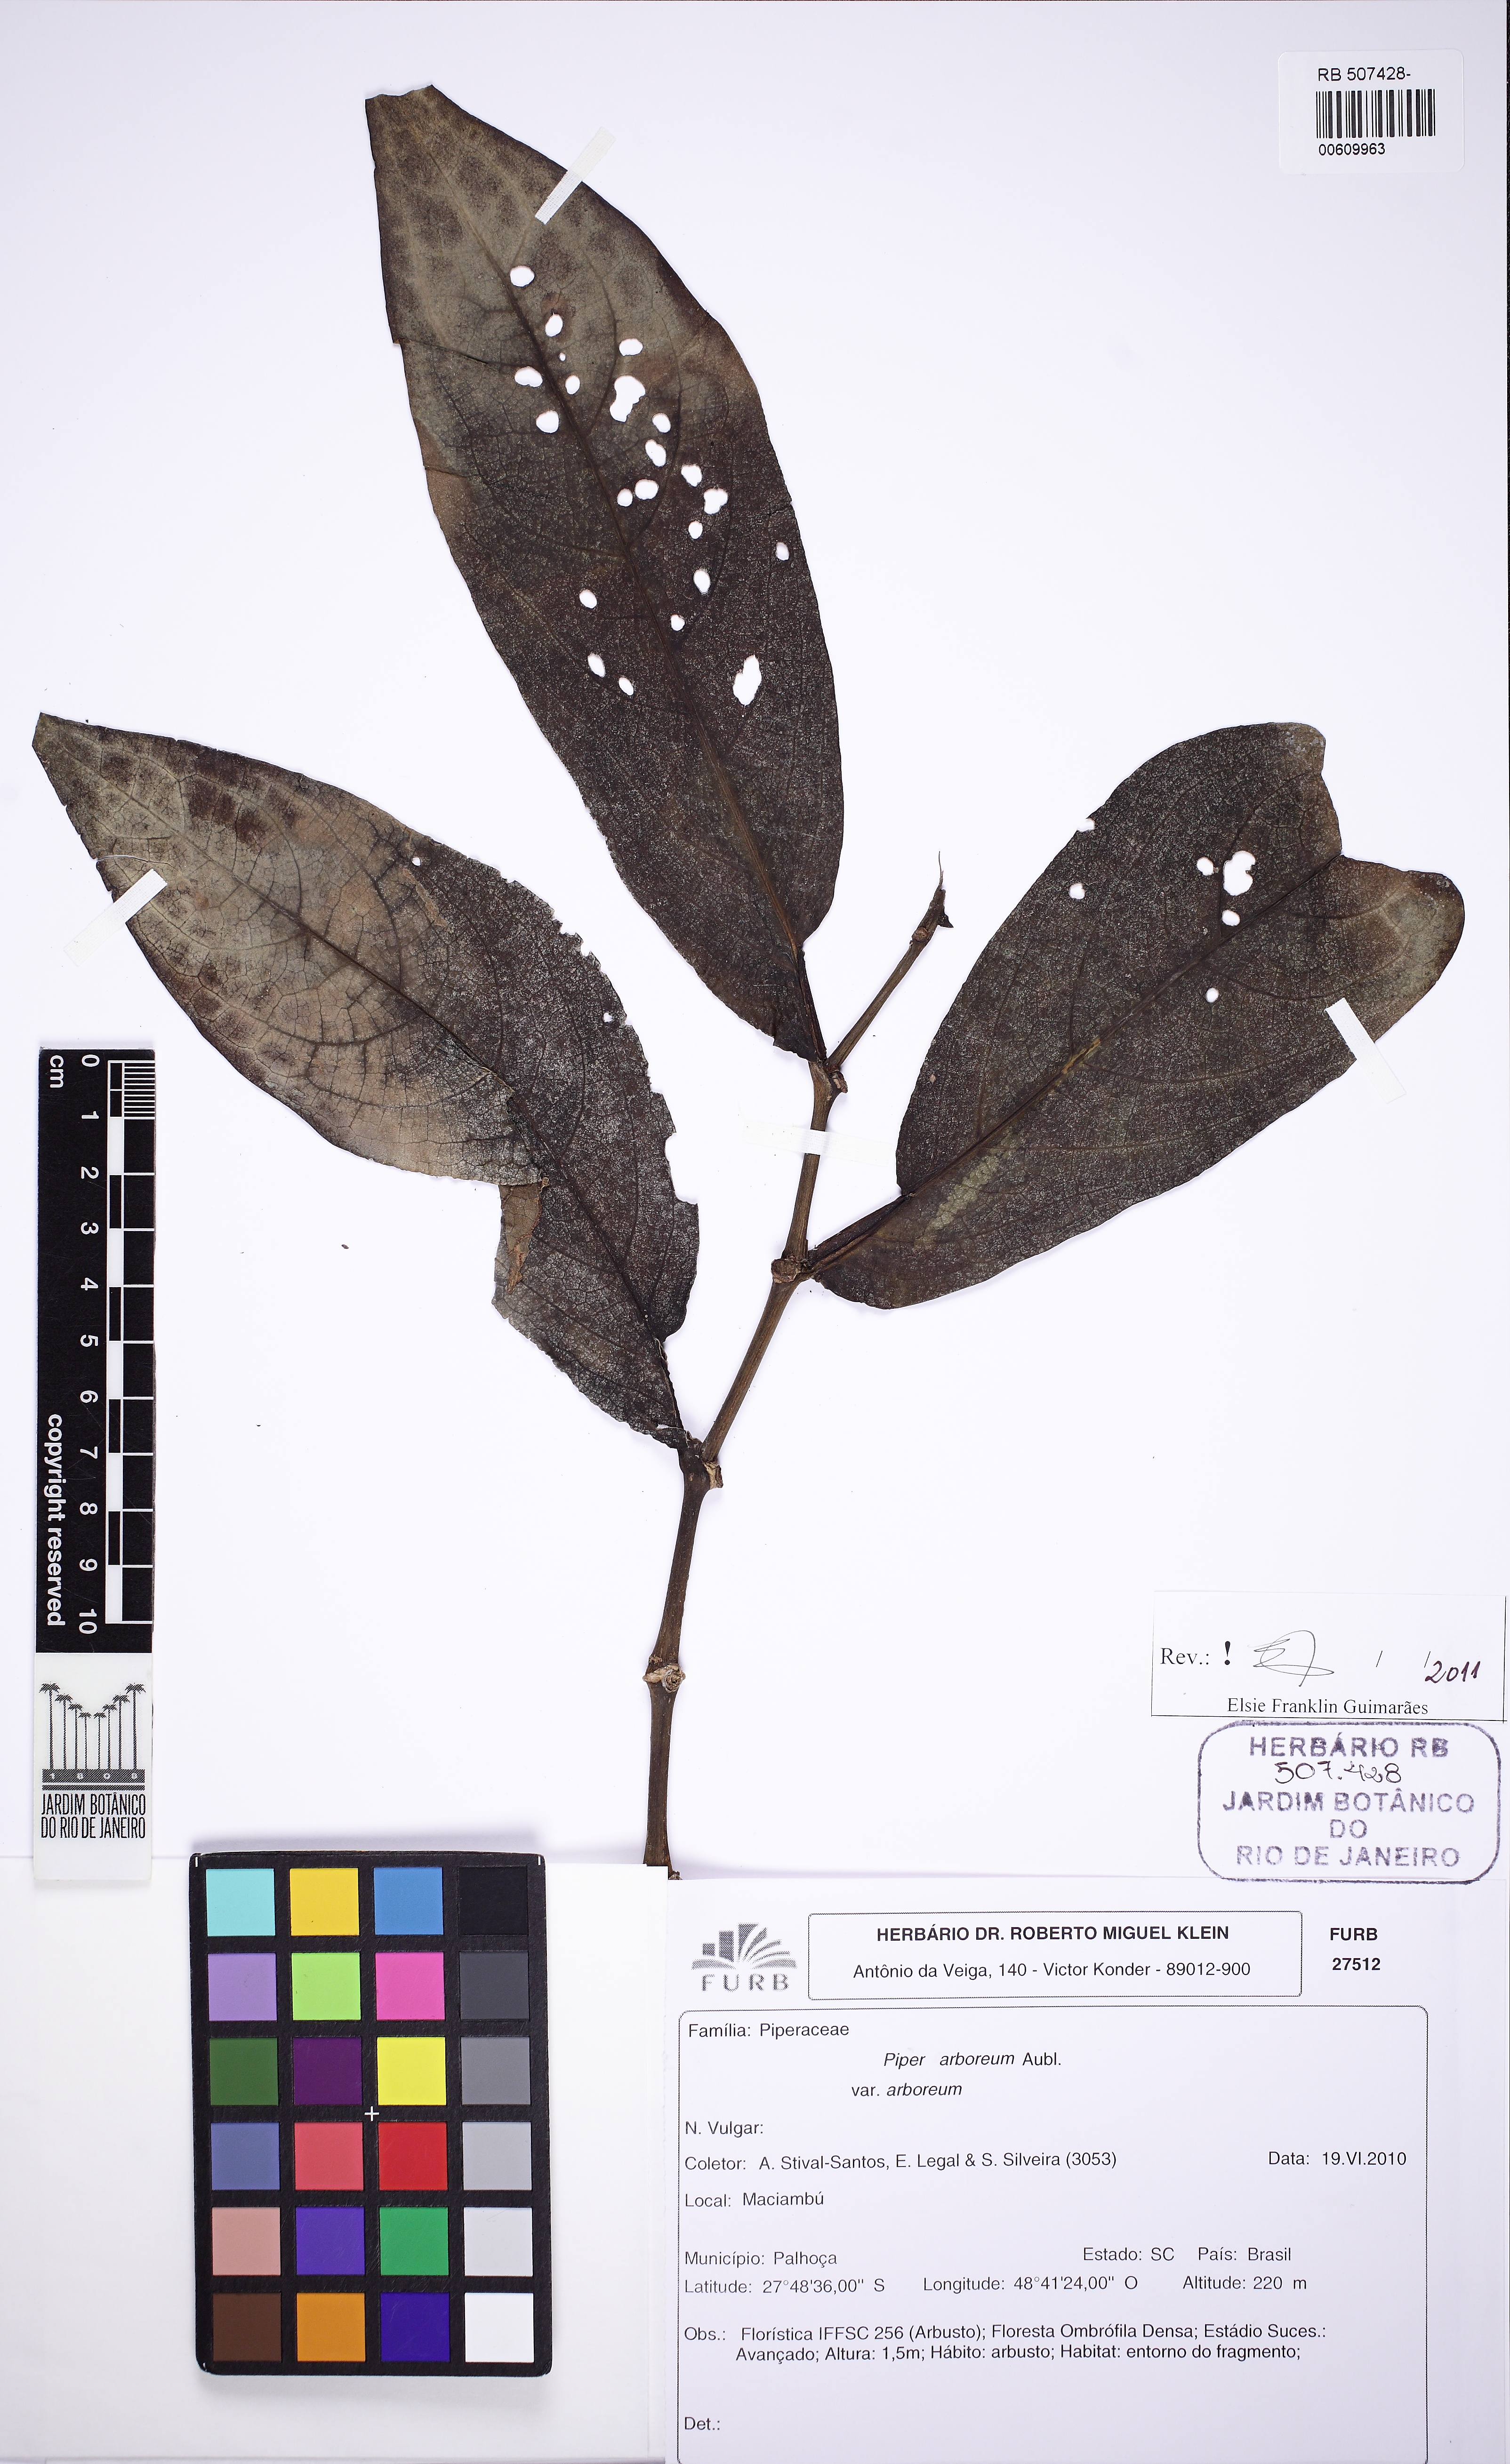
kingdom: Plantae
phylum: Tracheophyta
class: Magnoliopsida
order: Piperales
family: Piperaceae
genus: Piper
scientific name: Piper arboreum
